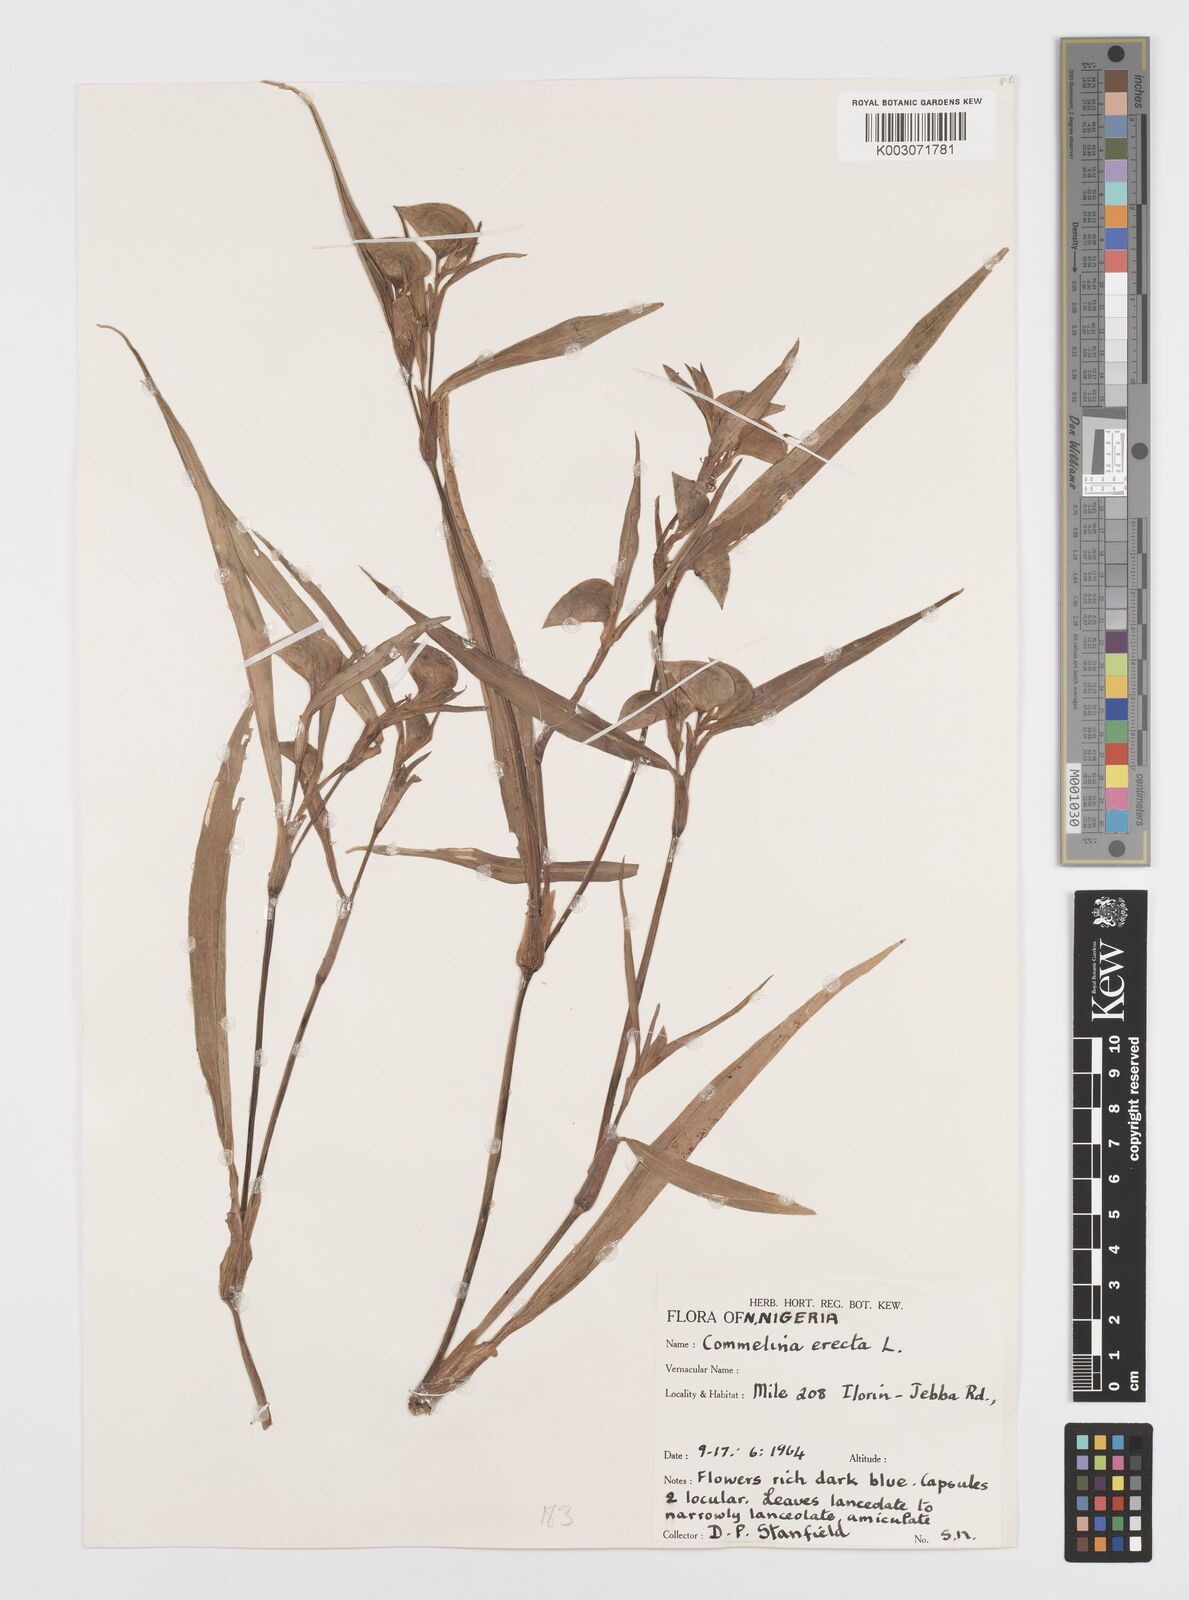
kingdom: Plantae
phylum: Tracheophyta
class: Liliopsida
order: Commelinales
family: Commelinaceae
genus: Commelina
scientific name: Commelina erecta
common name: Blousel blommetjie
